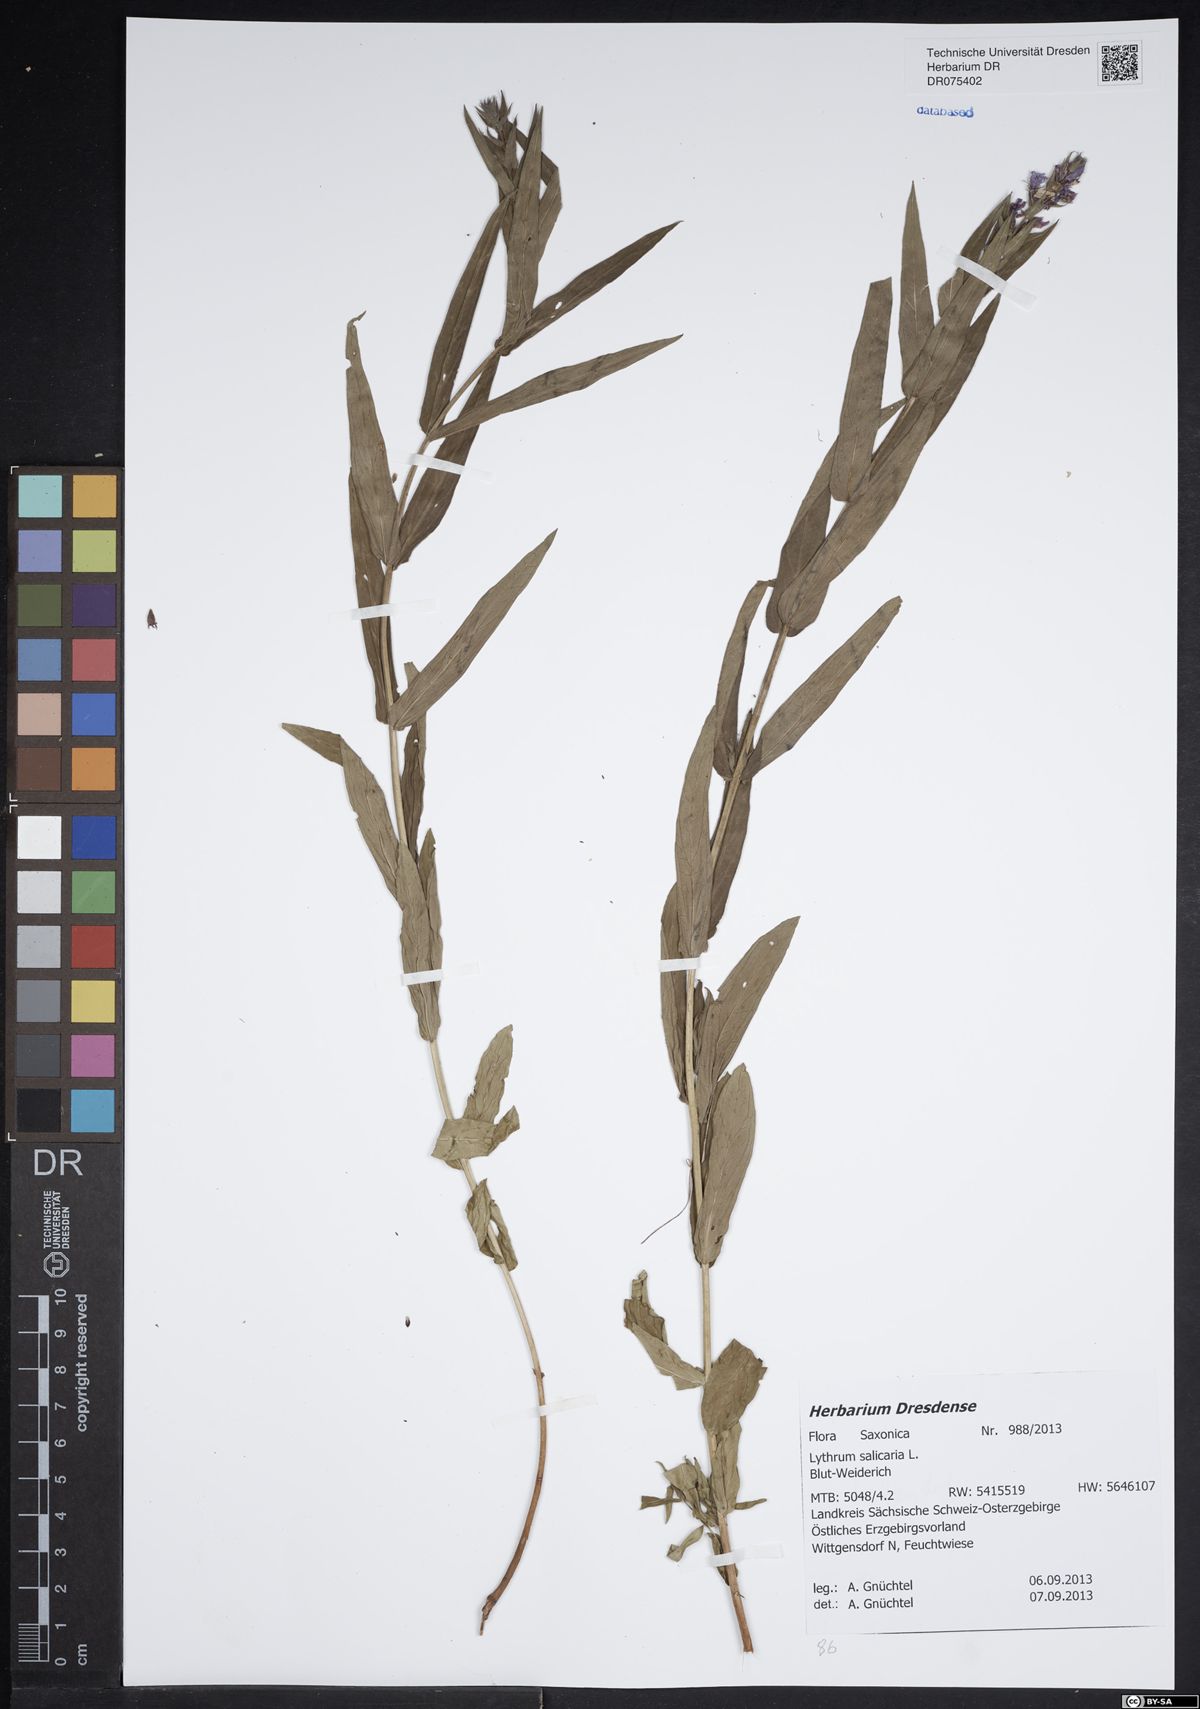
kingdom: Plantae
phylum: Tracheophyta
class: Magnoliopsida
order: Myrtales
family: Lythraceae
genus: Lythrum
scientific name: Lythrum salicaria
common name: Purple loosestrife
